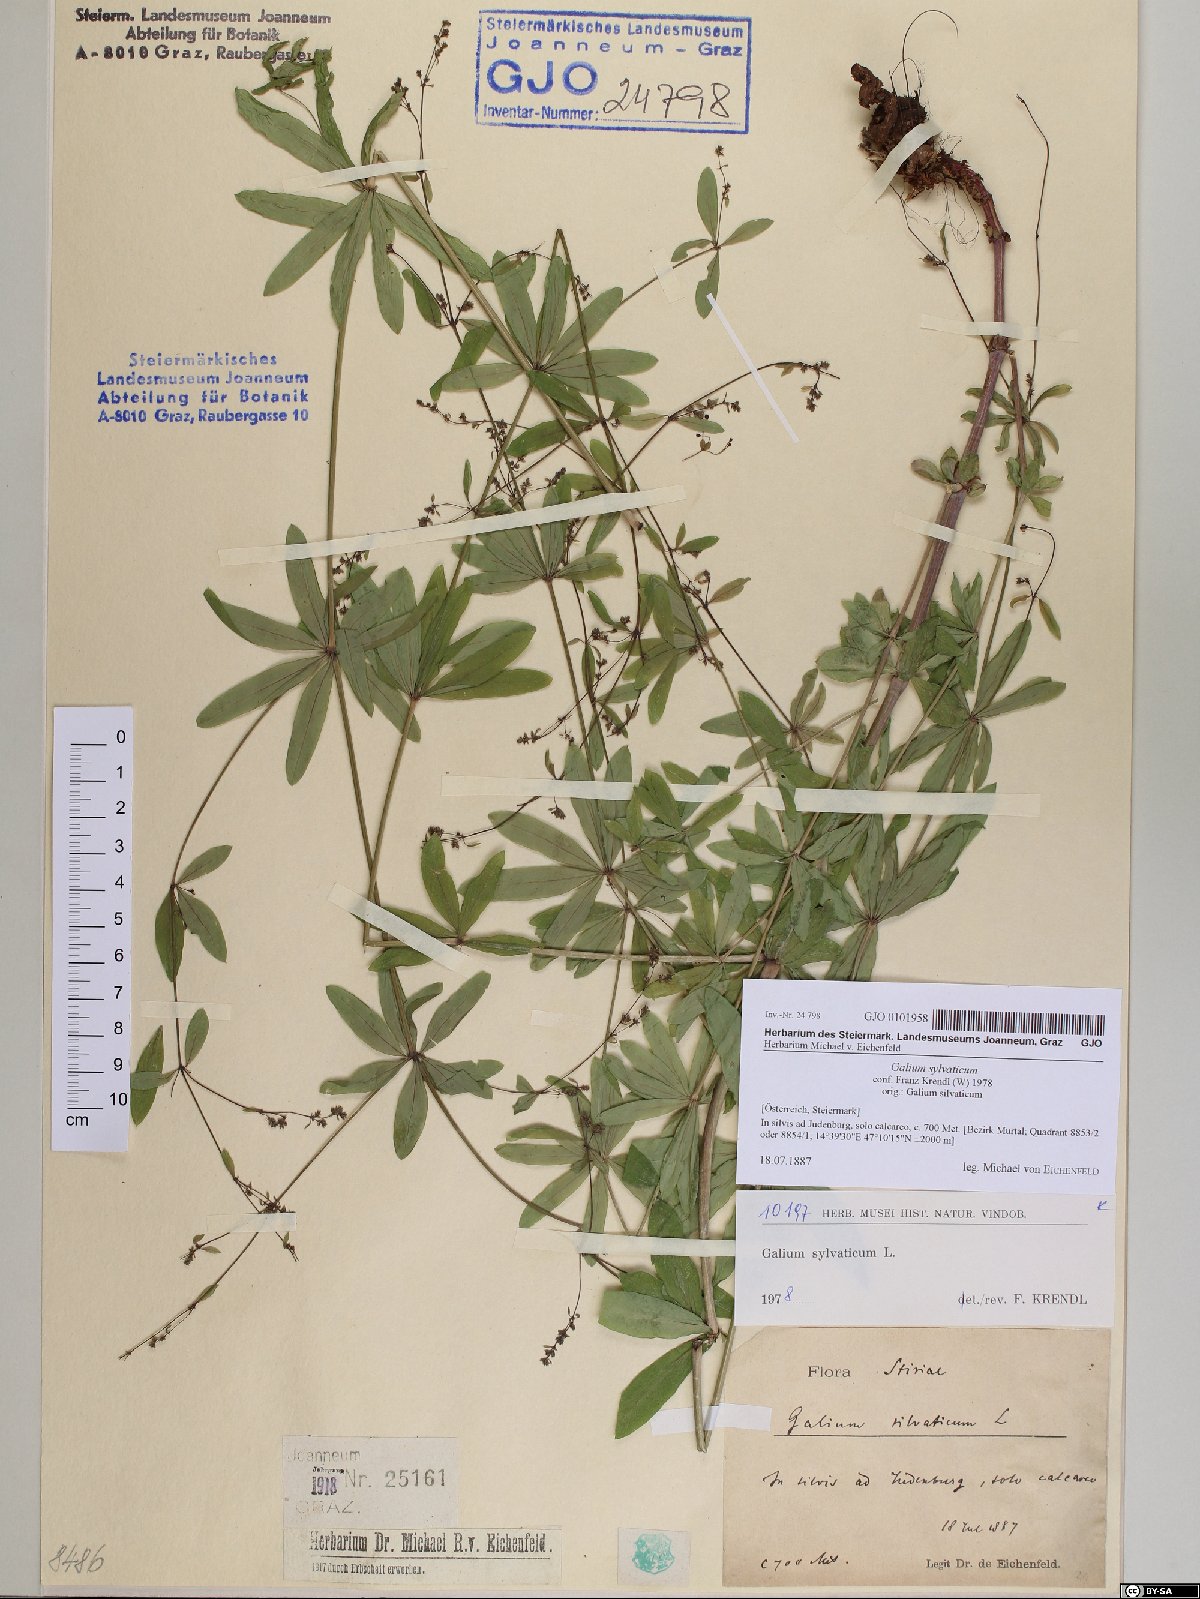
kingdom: Plantae
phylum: Tracheophyta
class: Magnoliopsida
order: Gentianales
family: Rubiaceae
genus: Galium
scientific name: Galium sylvaticum
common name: Wood bedstraw
